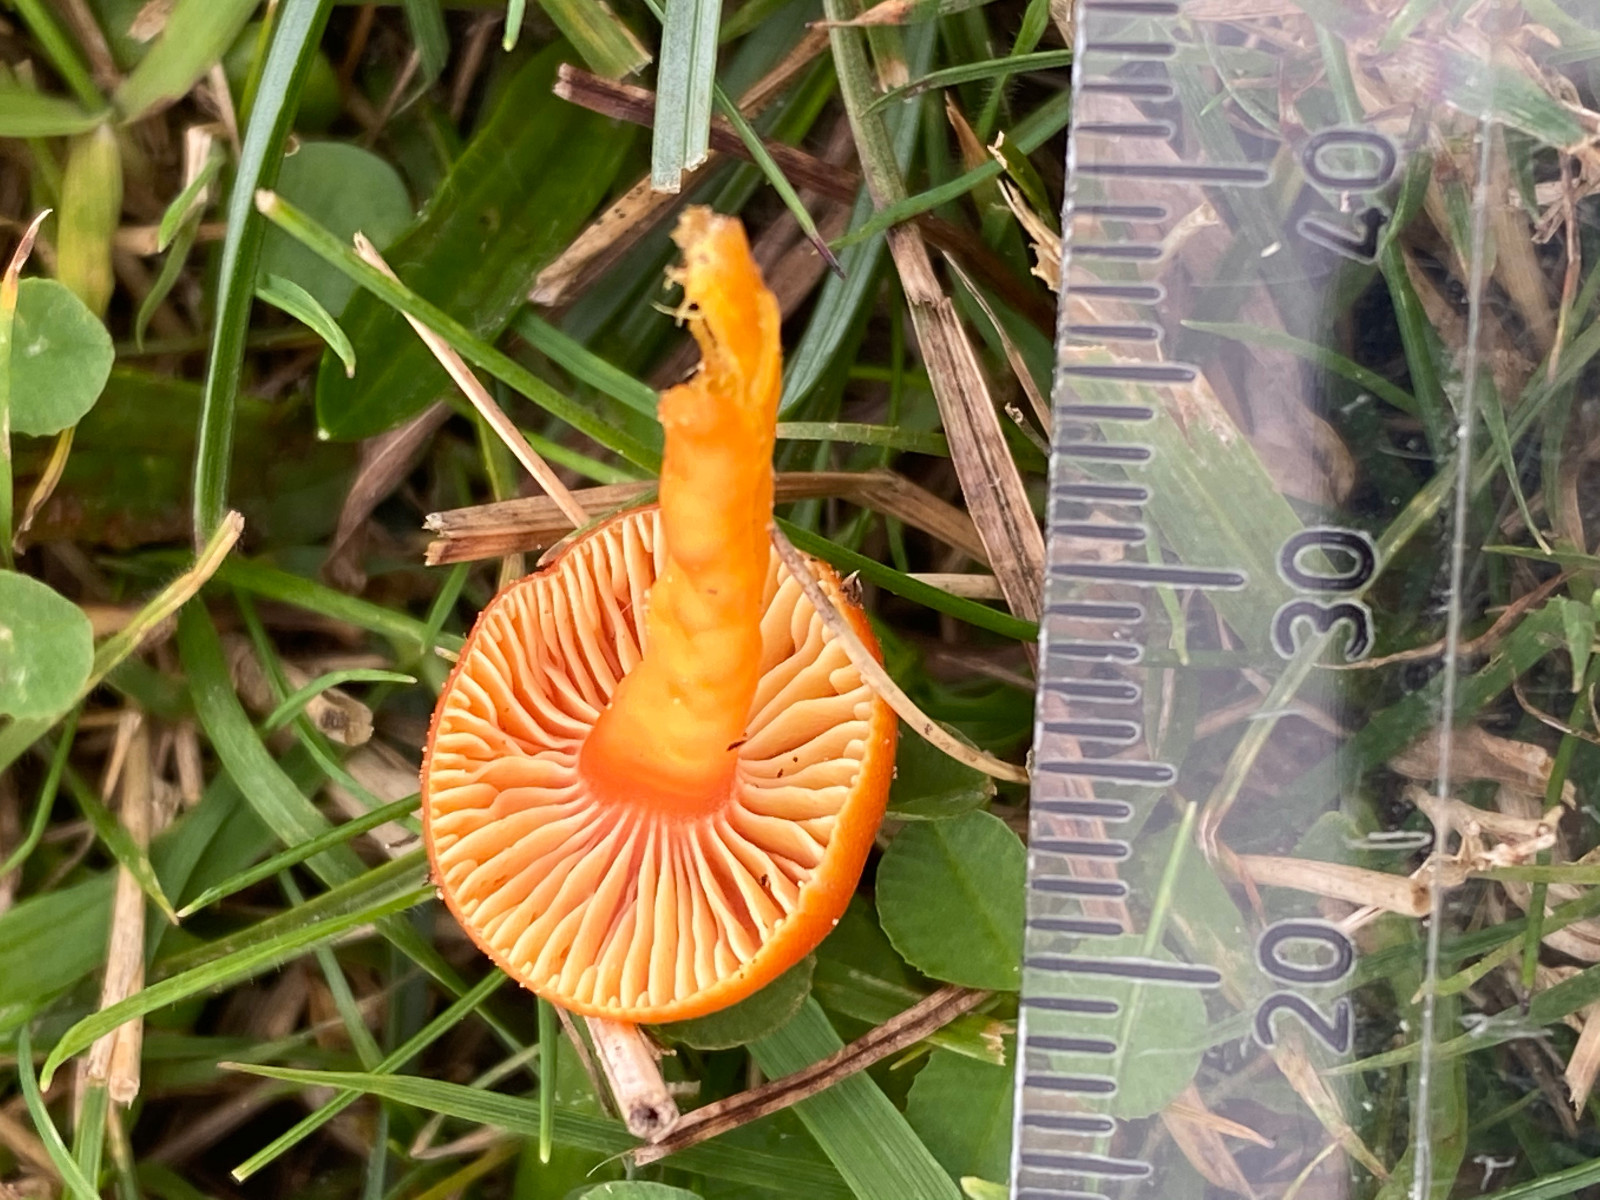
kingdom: Fungi
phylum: Basidiomycota
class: Agaricomycetes
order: Agaricales
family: Hygrophoraceae
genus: Hygrocybe
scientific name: Hygrocybe reidii
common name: honning-vokshat
